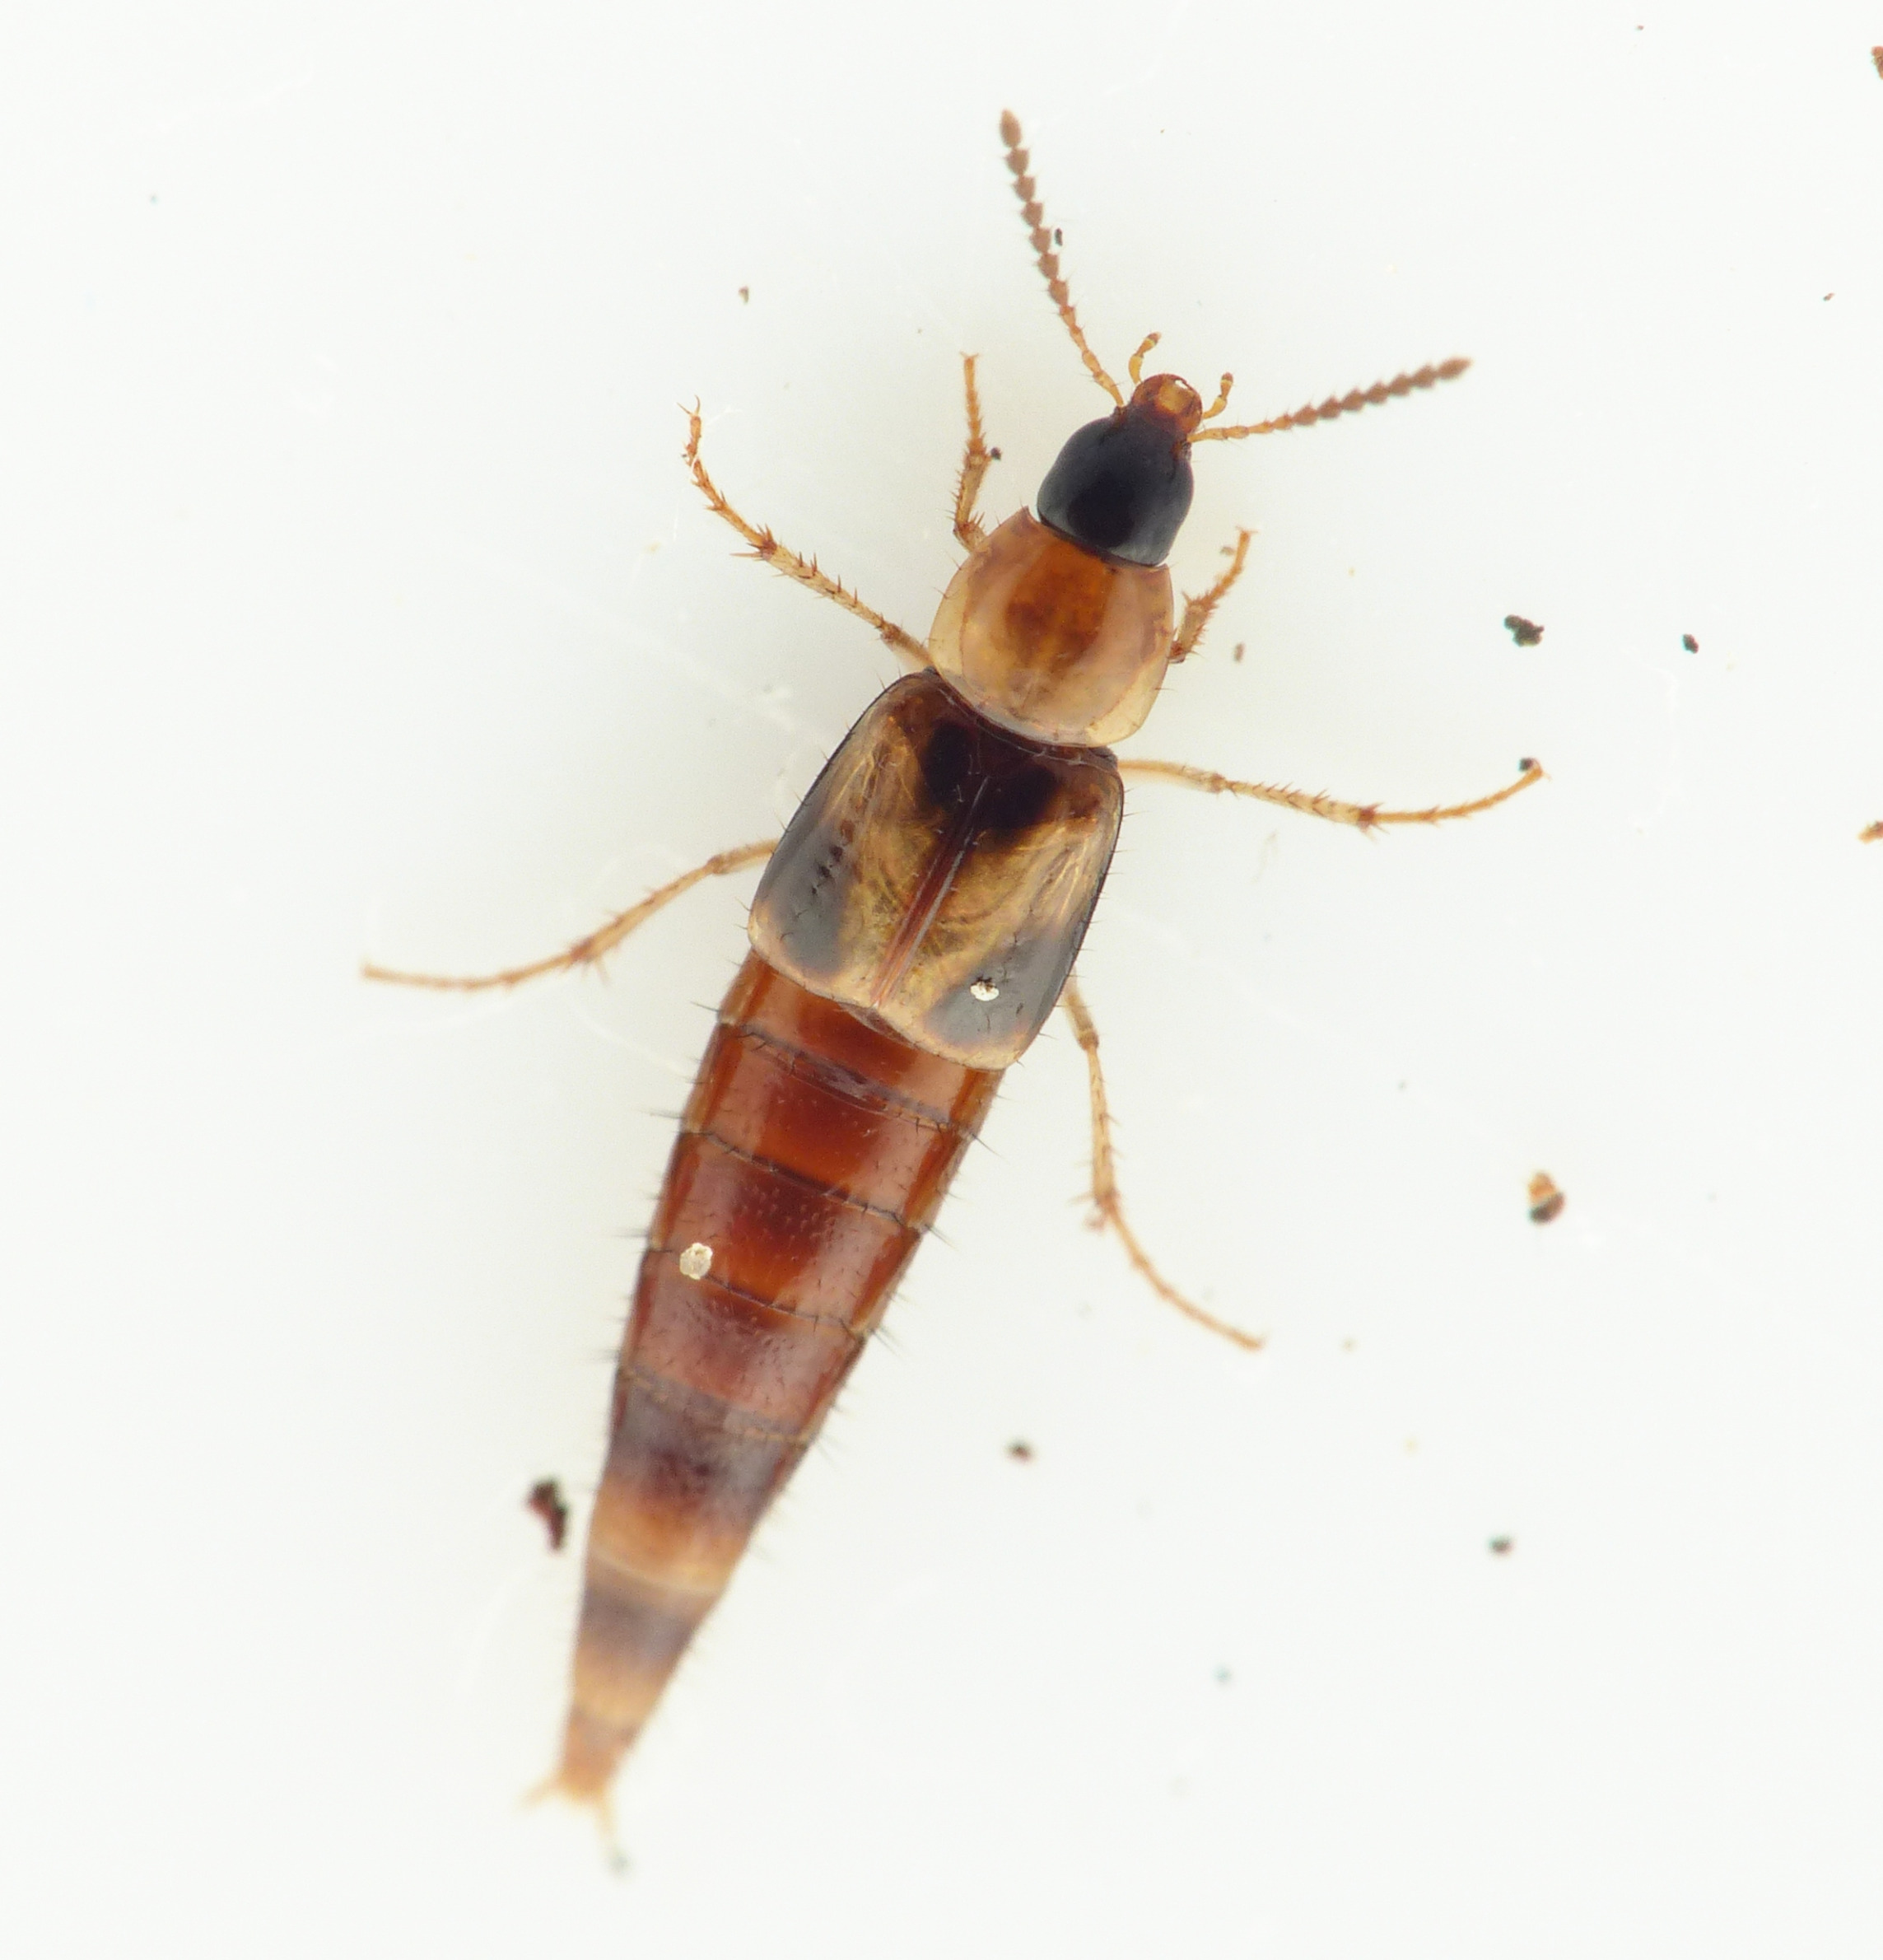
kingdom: Animalia
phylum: Arthropoda
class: Insecta
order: Coleoptera
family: Staphylinidae
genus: Lordithon
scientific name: Lordithon trinotatus
